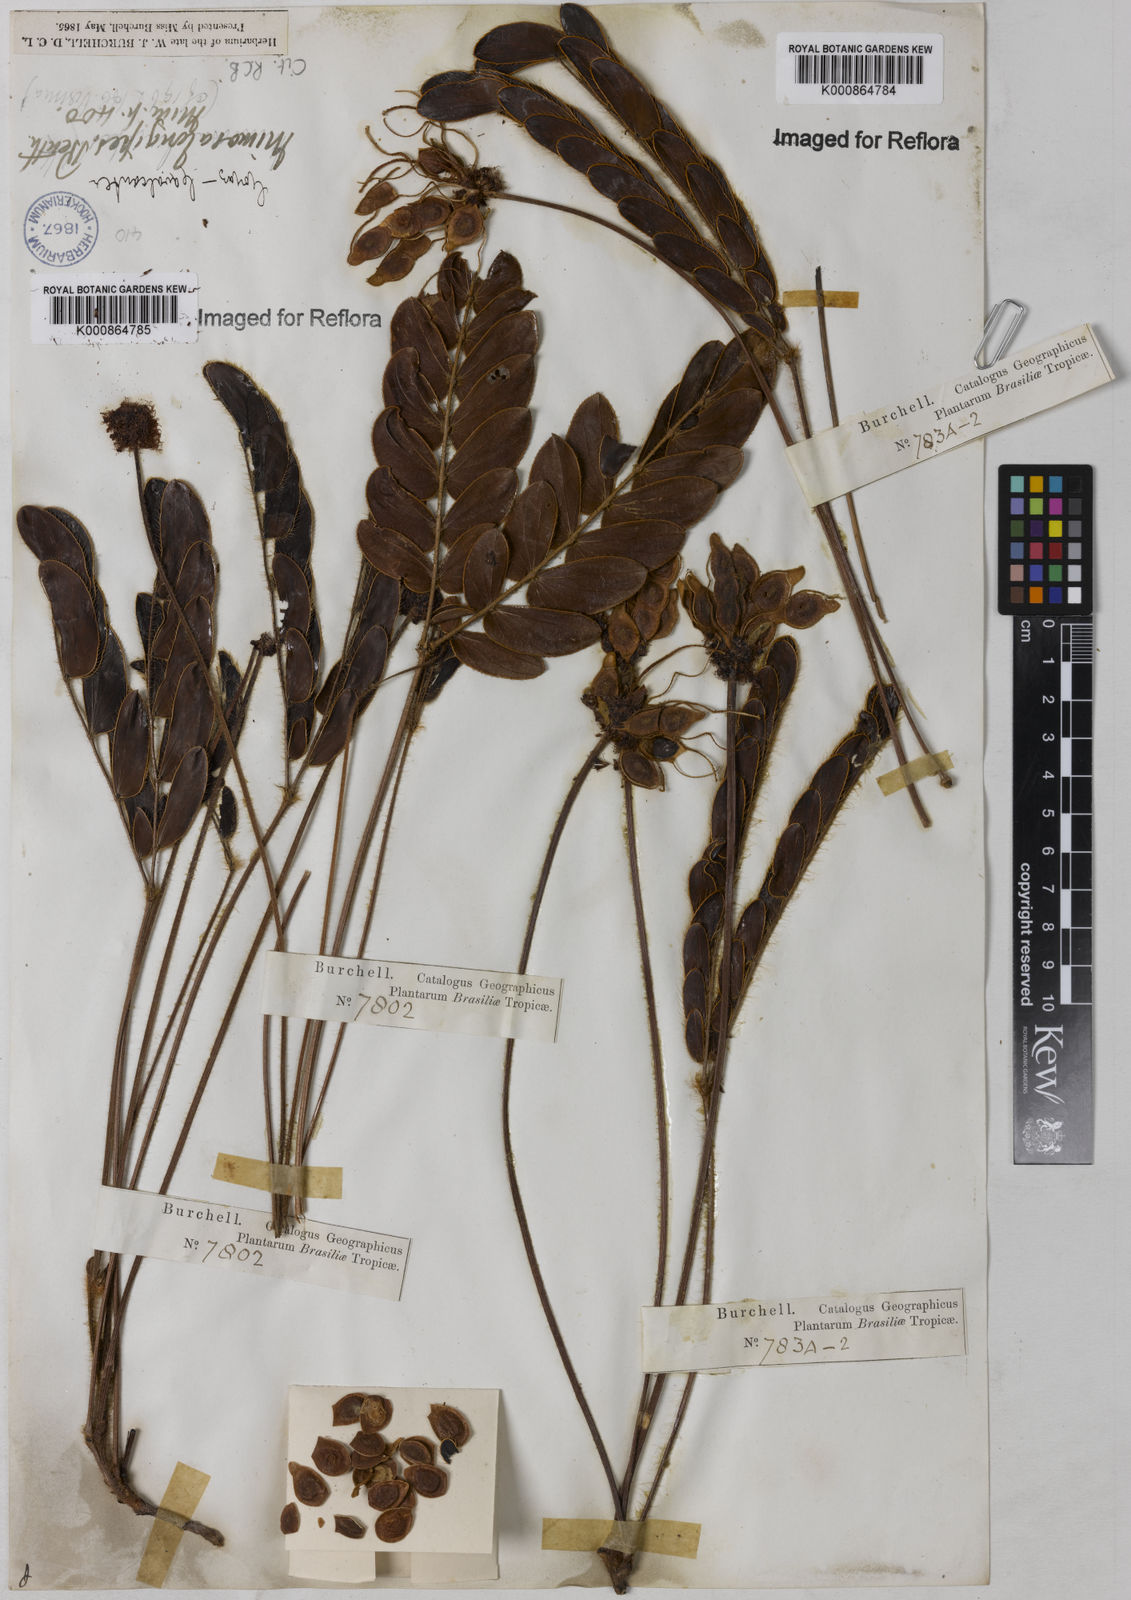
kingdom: Plantae
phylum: Tracheophyta
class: Magnoliopsida
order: Fabales
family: Fabaceae
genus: Mimosa
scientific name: Mimosa longipes
